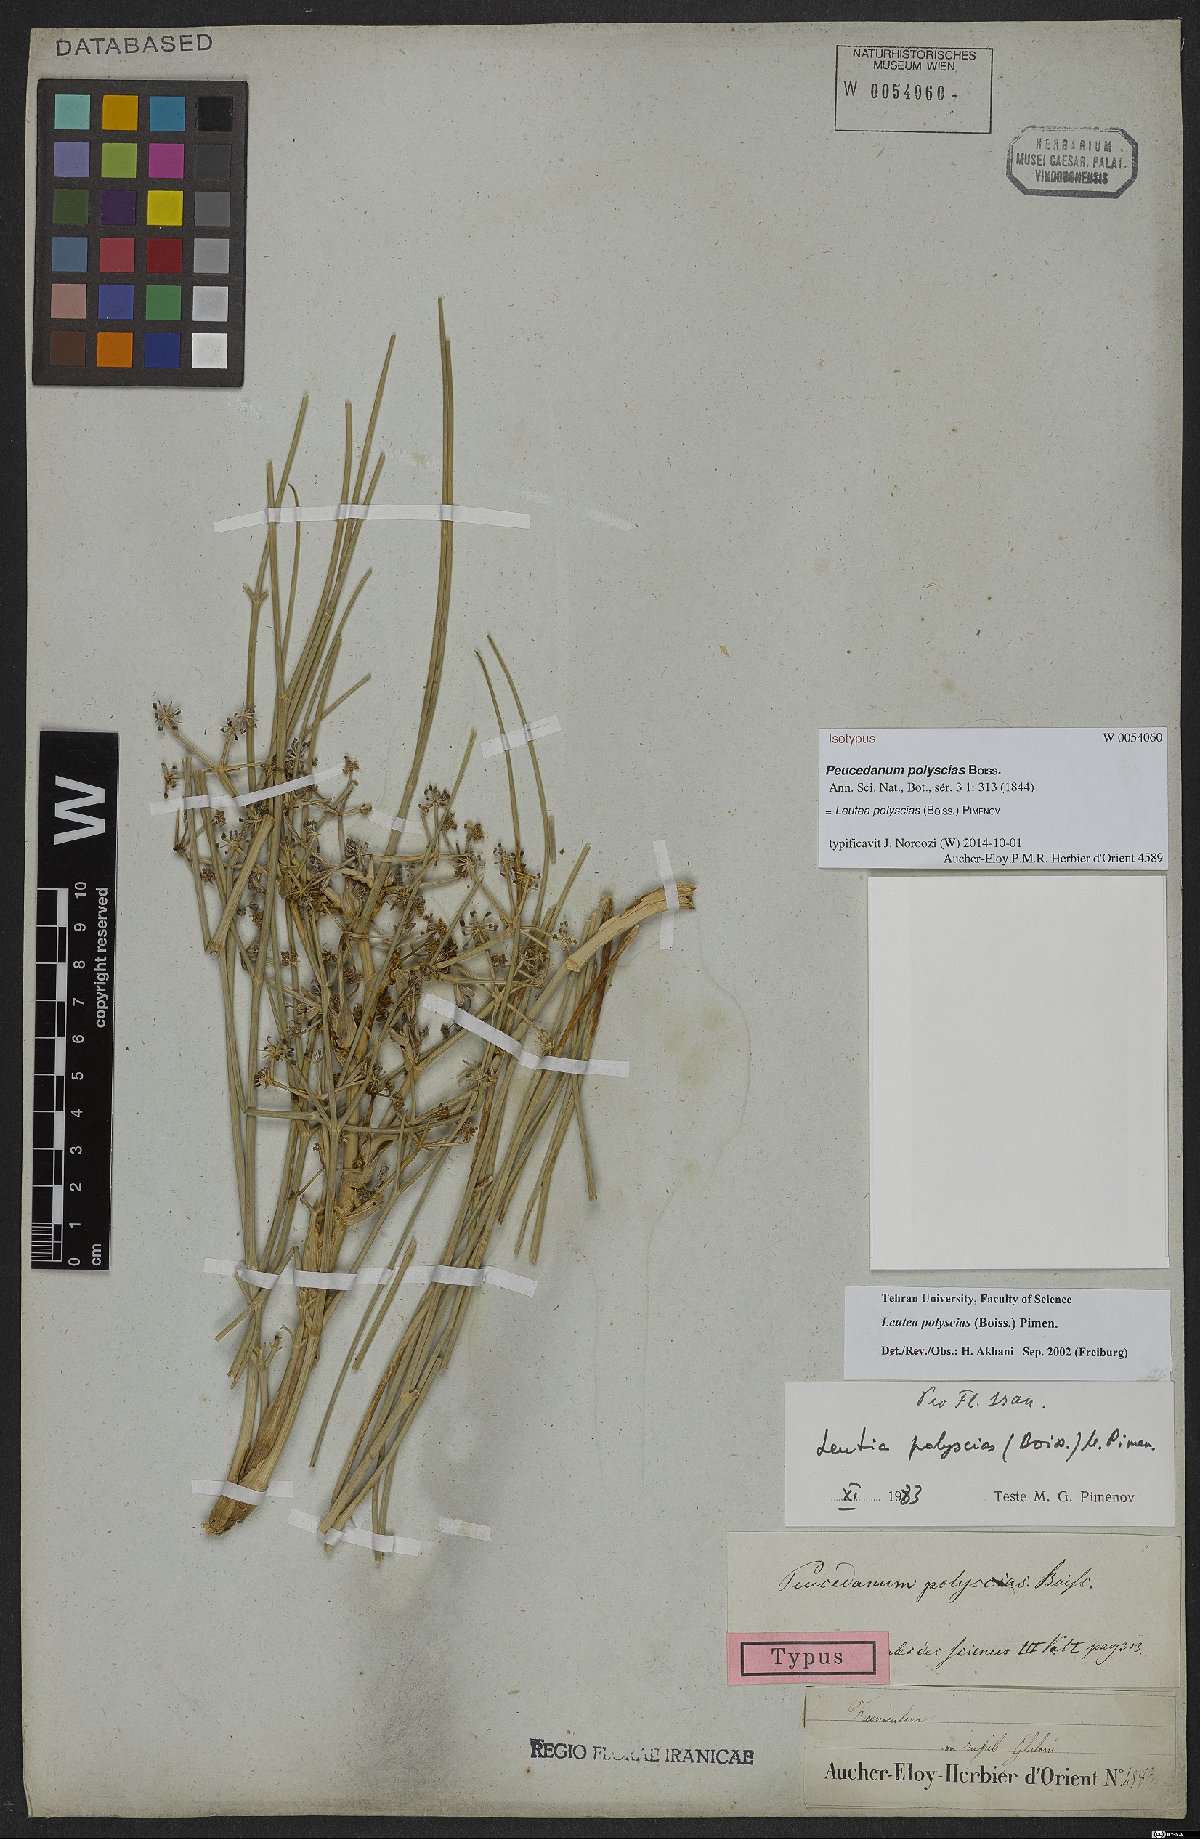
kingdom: Plantae
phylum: Tracheophyta
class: Magnoliopsida
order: Apiales
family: Apiaceae
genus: Leutea
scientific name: Leutea polyscias
